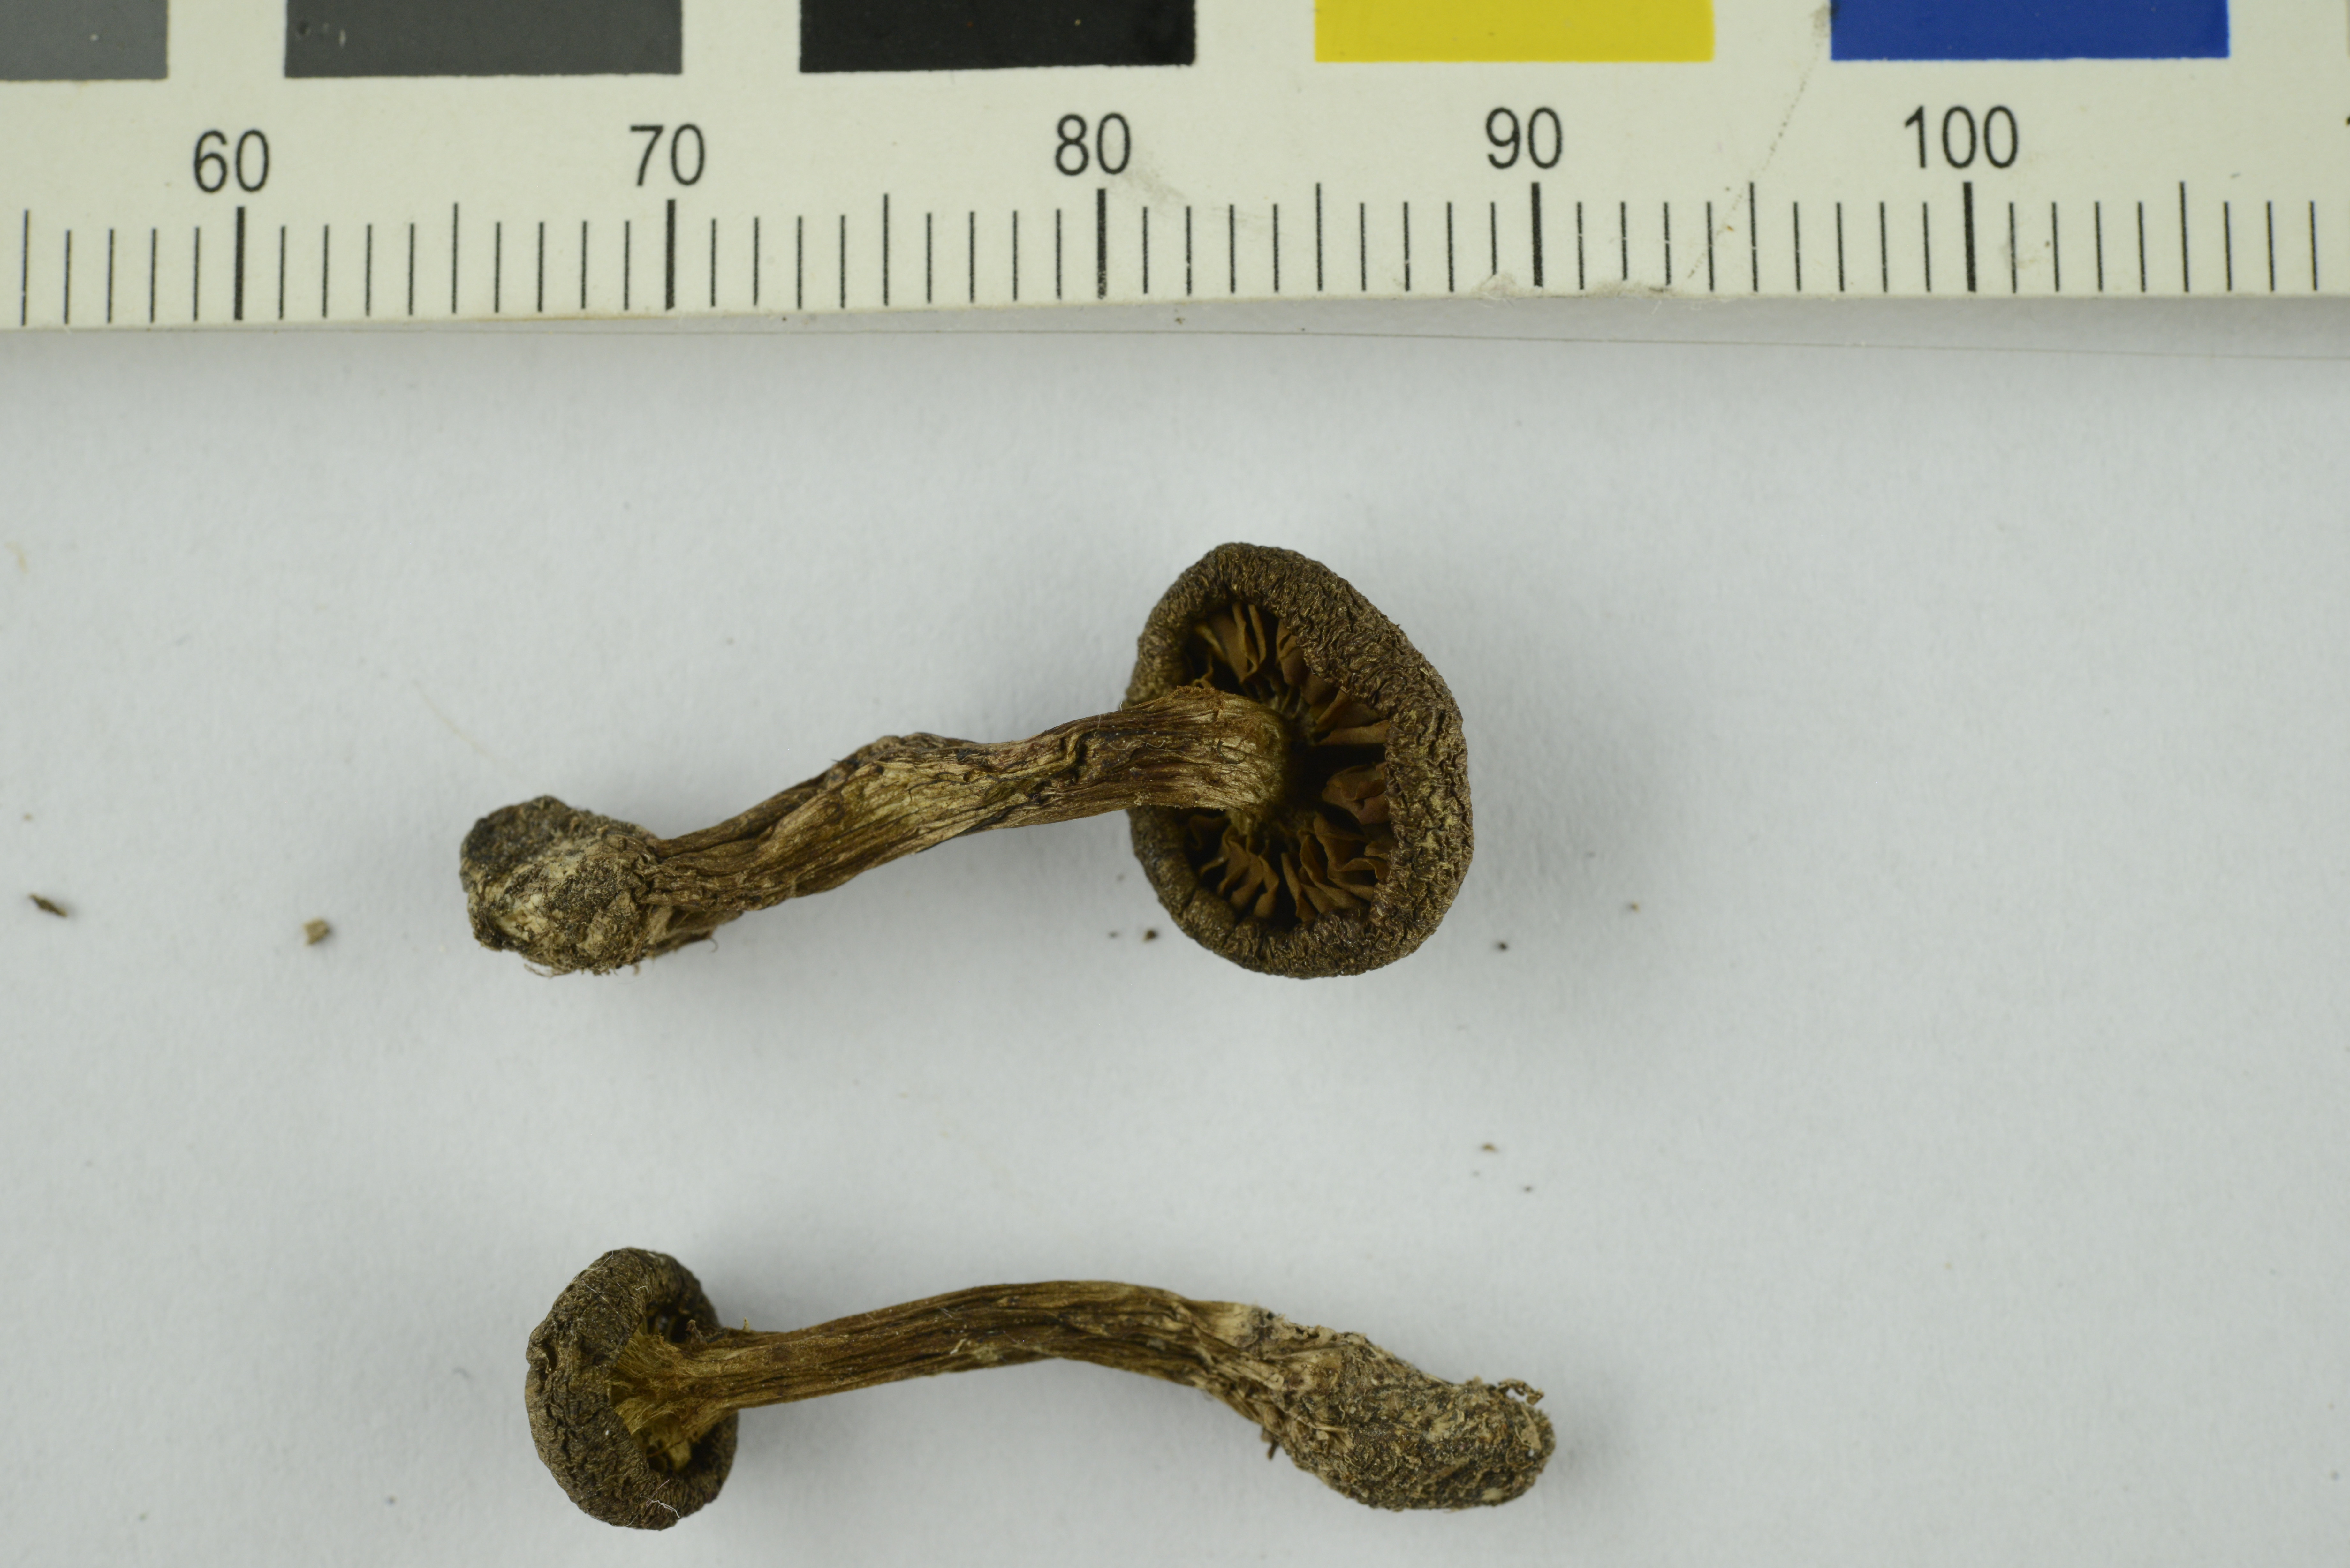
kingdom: Fungi
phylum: Basidiomycota
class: Agaricomycetes
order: Agaricales
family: Cortinariaceae
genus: Cortinarius
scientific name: Cortinarius norvegicus
